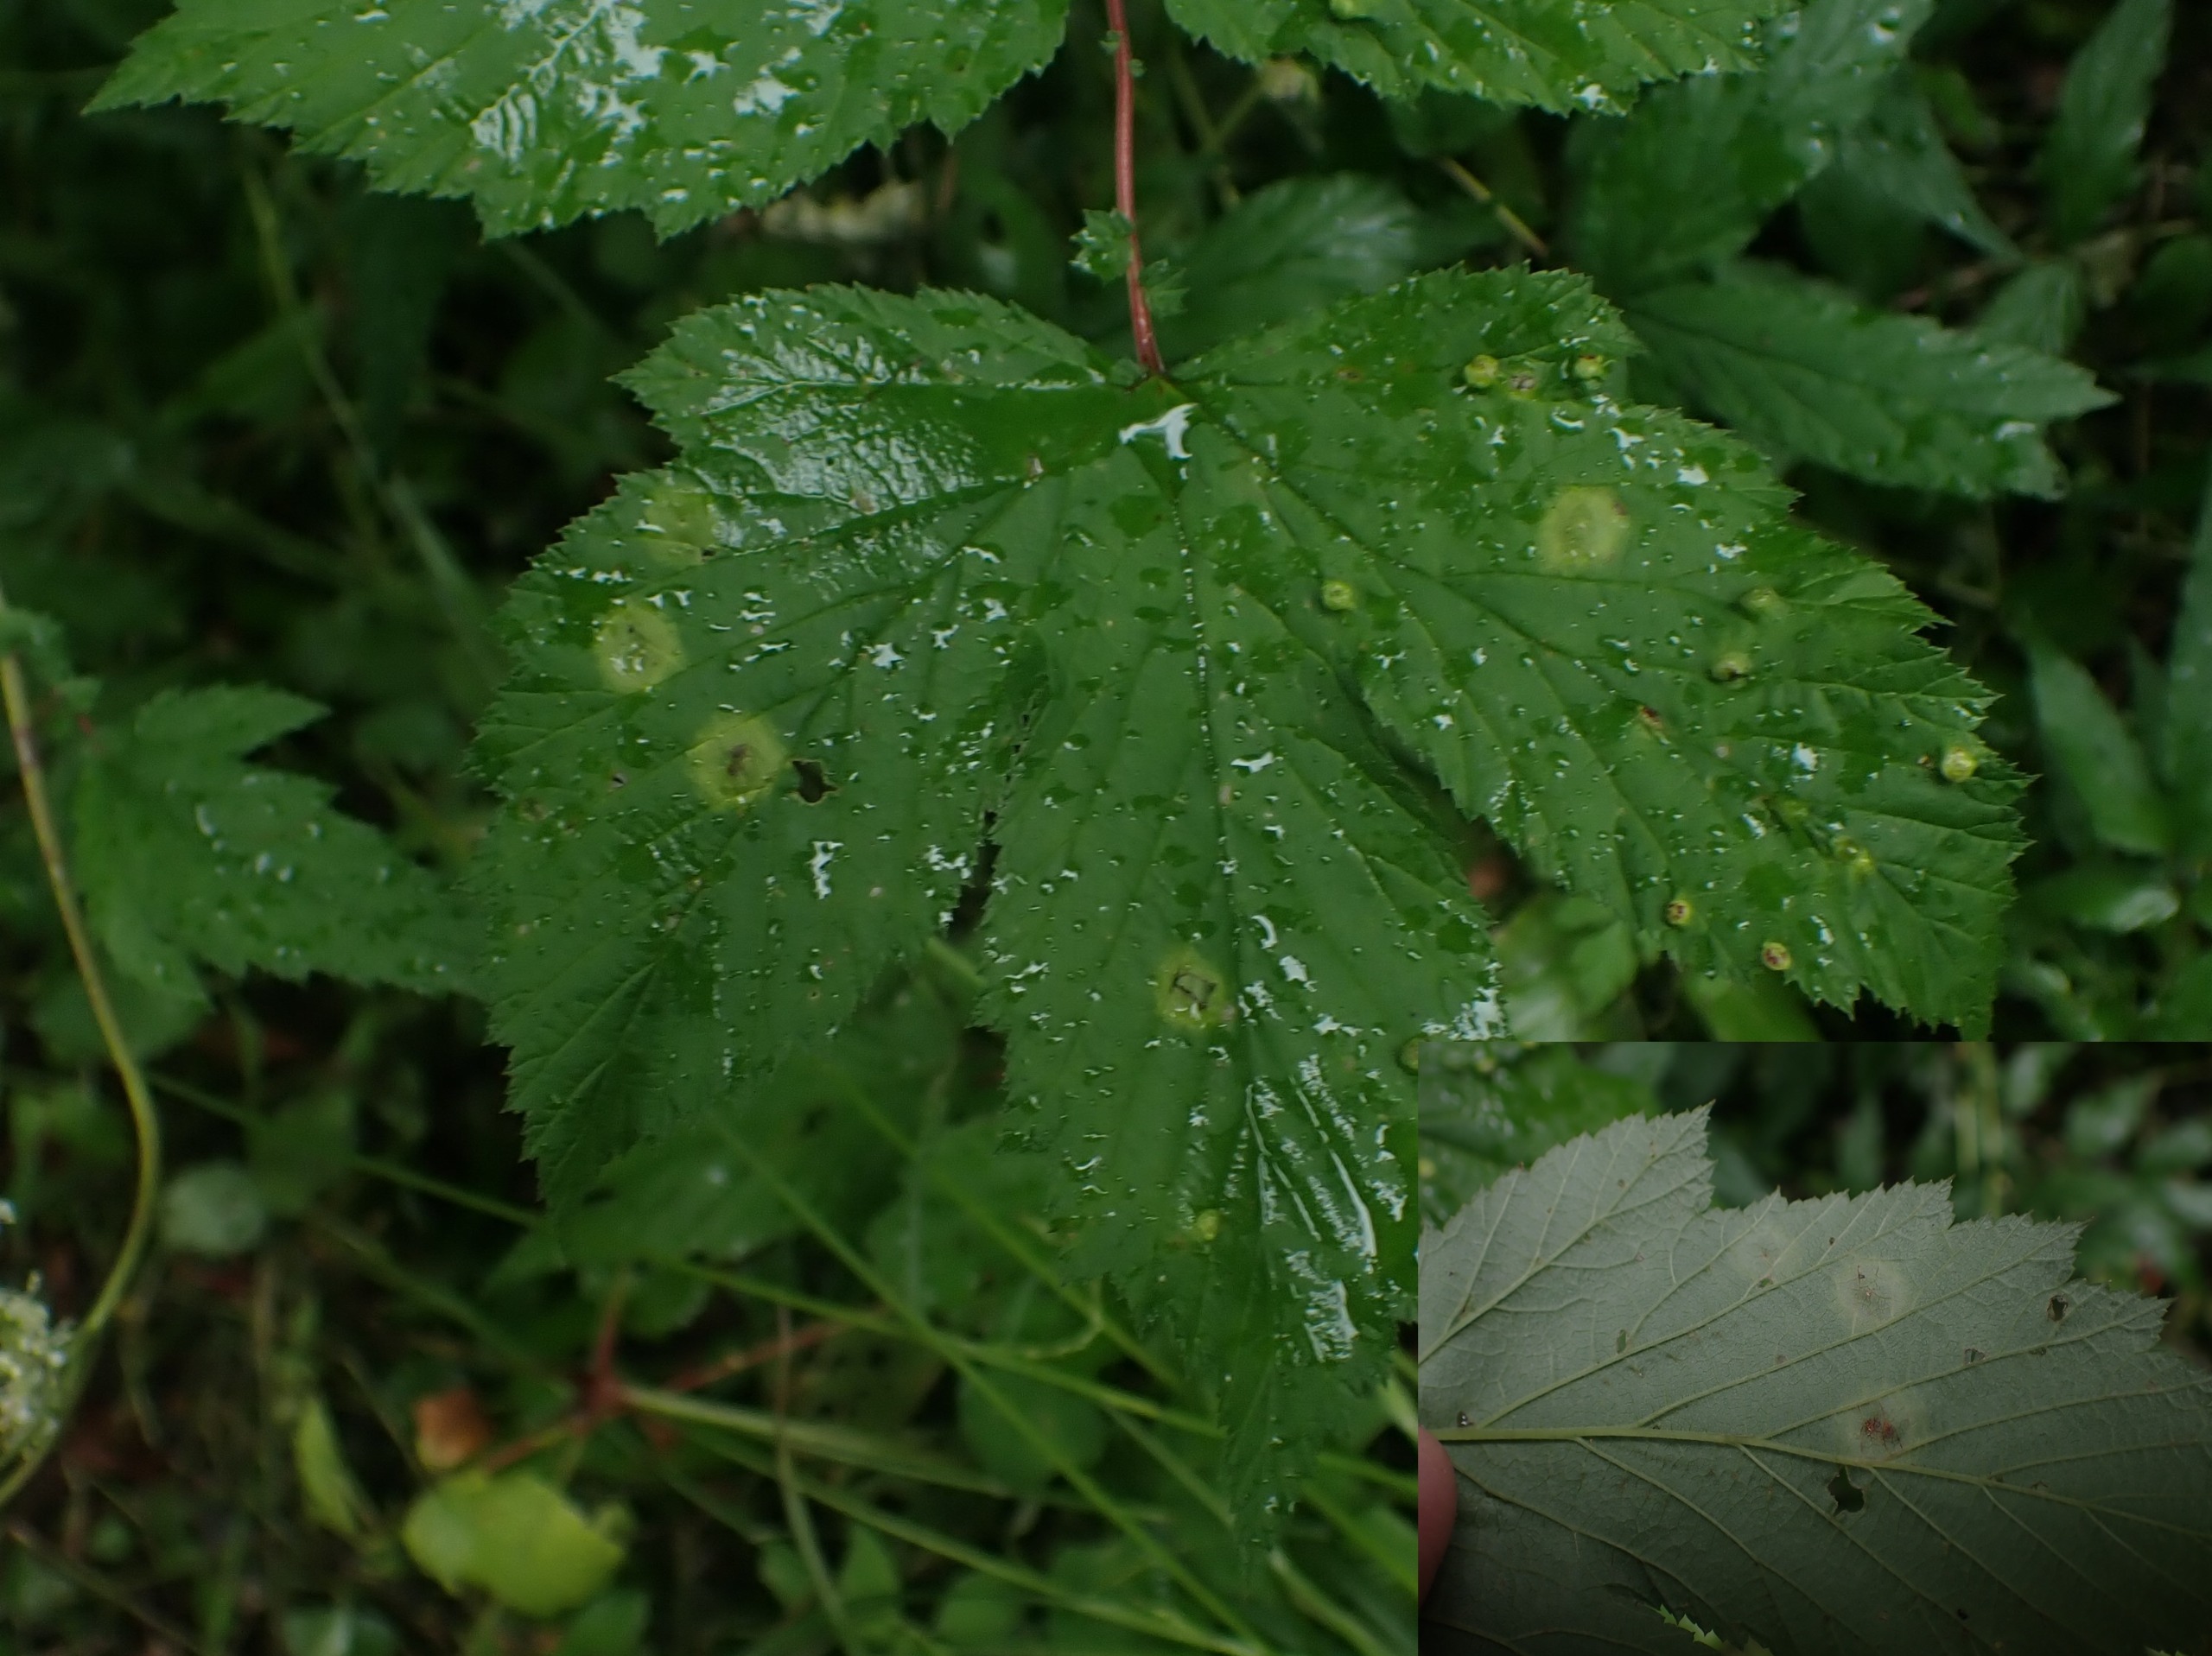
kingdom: Animalia
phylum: Arthropoda
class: Insecta
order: Diptera
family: Cecidomyiidae
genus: Dasineura
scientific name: Dasineura pustulans
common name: Mjødurtblistgalmyg
